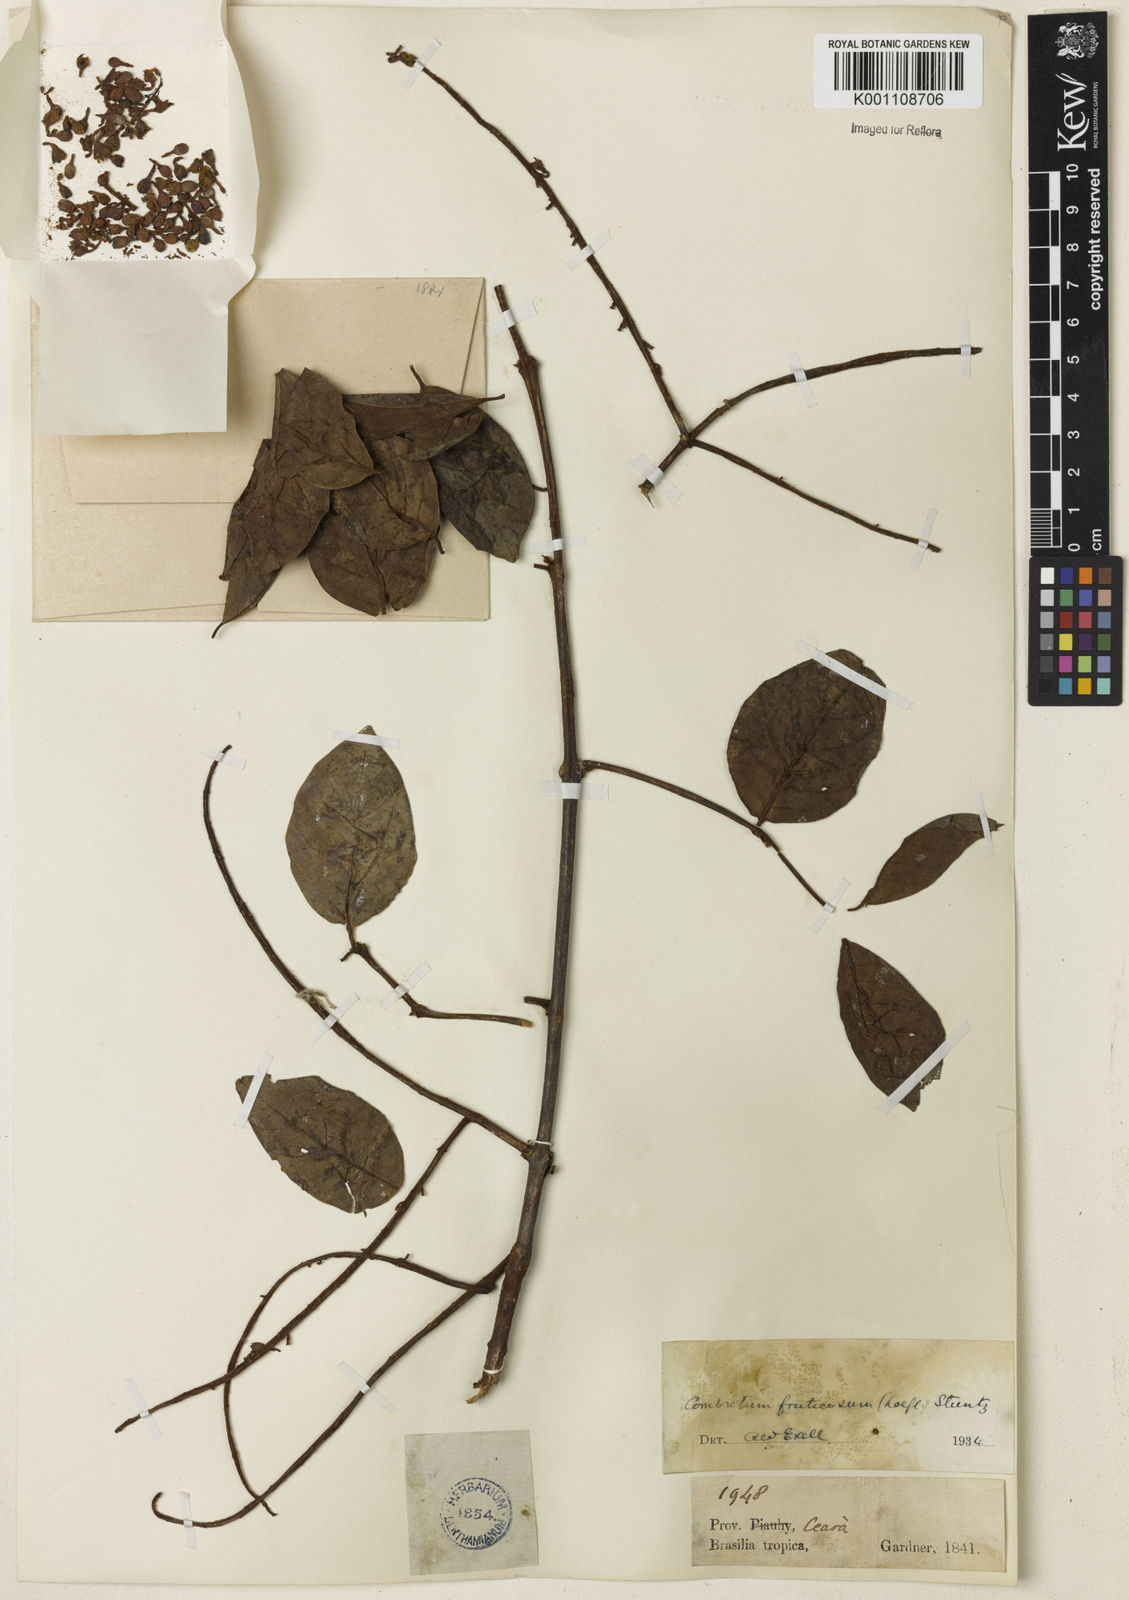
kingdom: Plantae
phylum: Tracheophyta
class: Magnoliopsida
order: Myrtales
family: Combretaceae
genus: Combretum
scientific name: Combretum fruticosum
